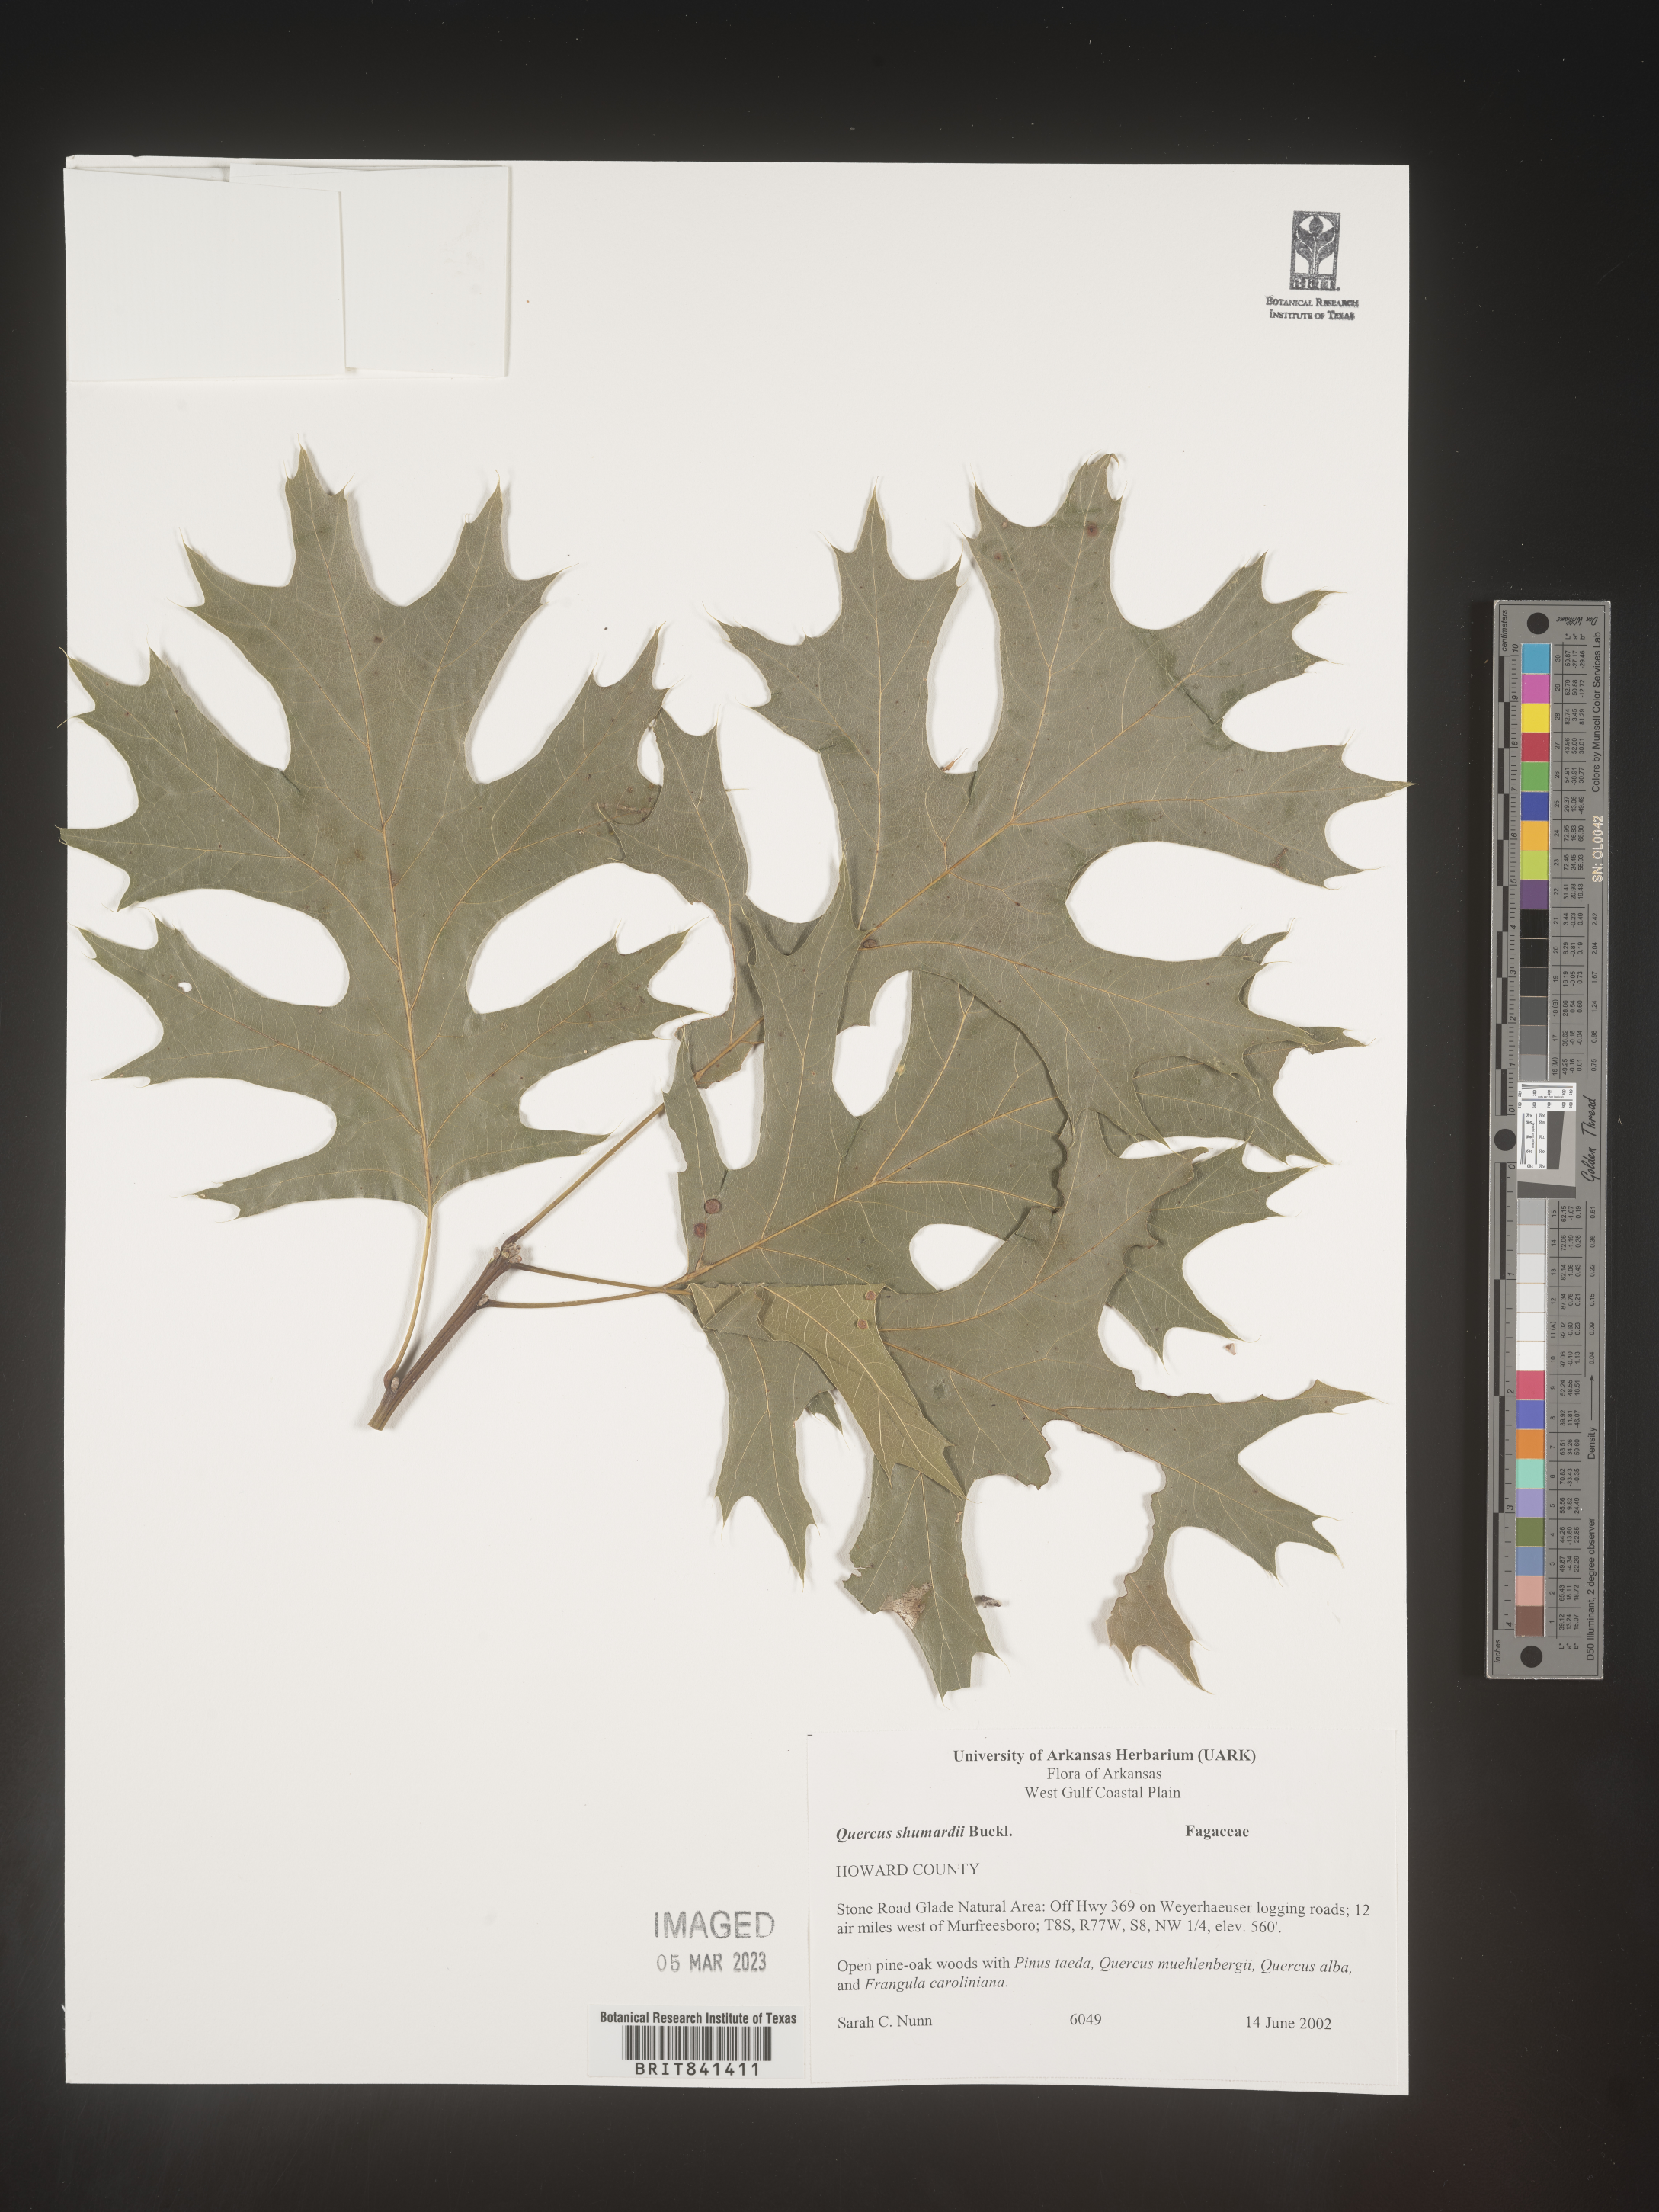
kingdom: Plantae
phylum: Tracheophyta
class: Magnoliopsida
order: Fagales
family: Fagaceae
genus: Quercus
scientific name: Quercus shumardii
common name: Shumard oak
